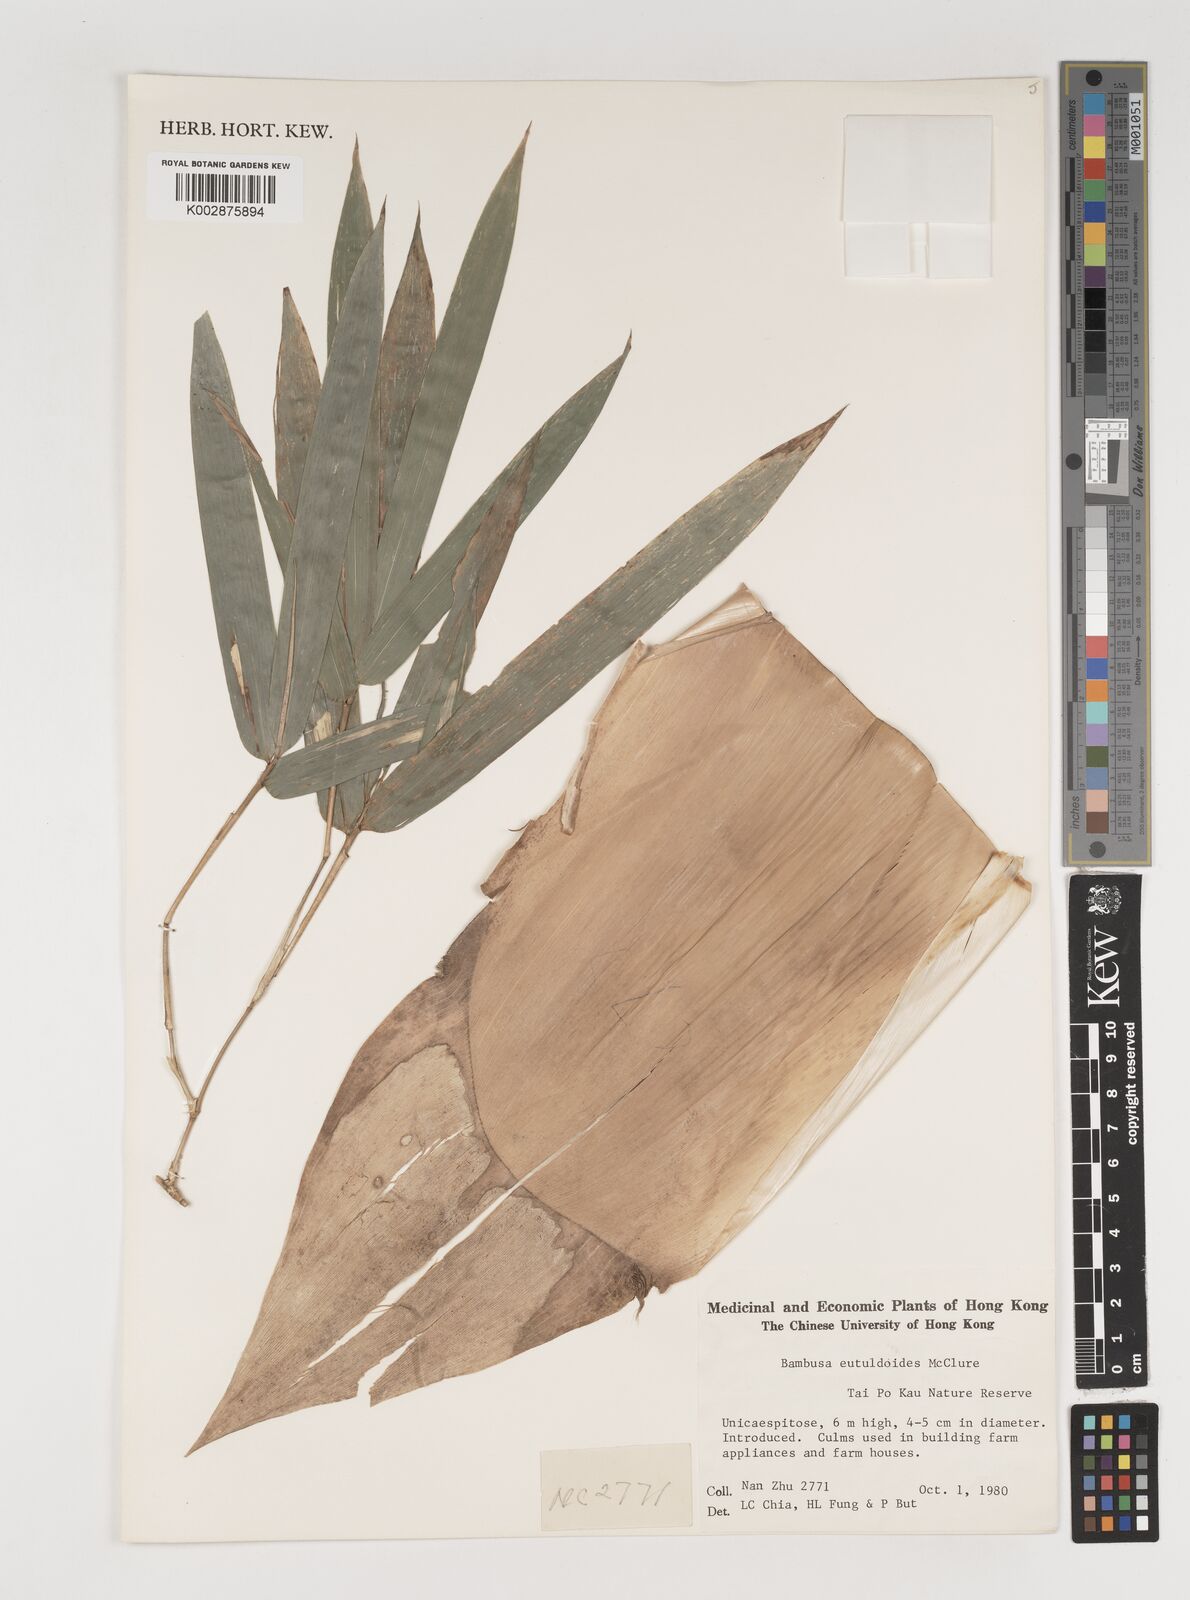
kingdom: Plantae
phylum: Tracheophyta
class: Liliopsida
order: Poales
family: Poaceae
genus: Bambusa
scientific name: Bambusa eutuldoides
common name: Dai ngan bamboo
